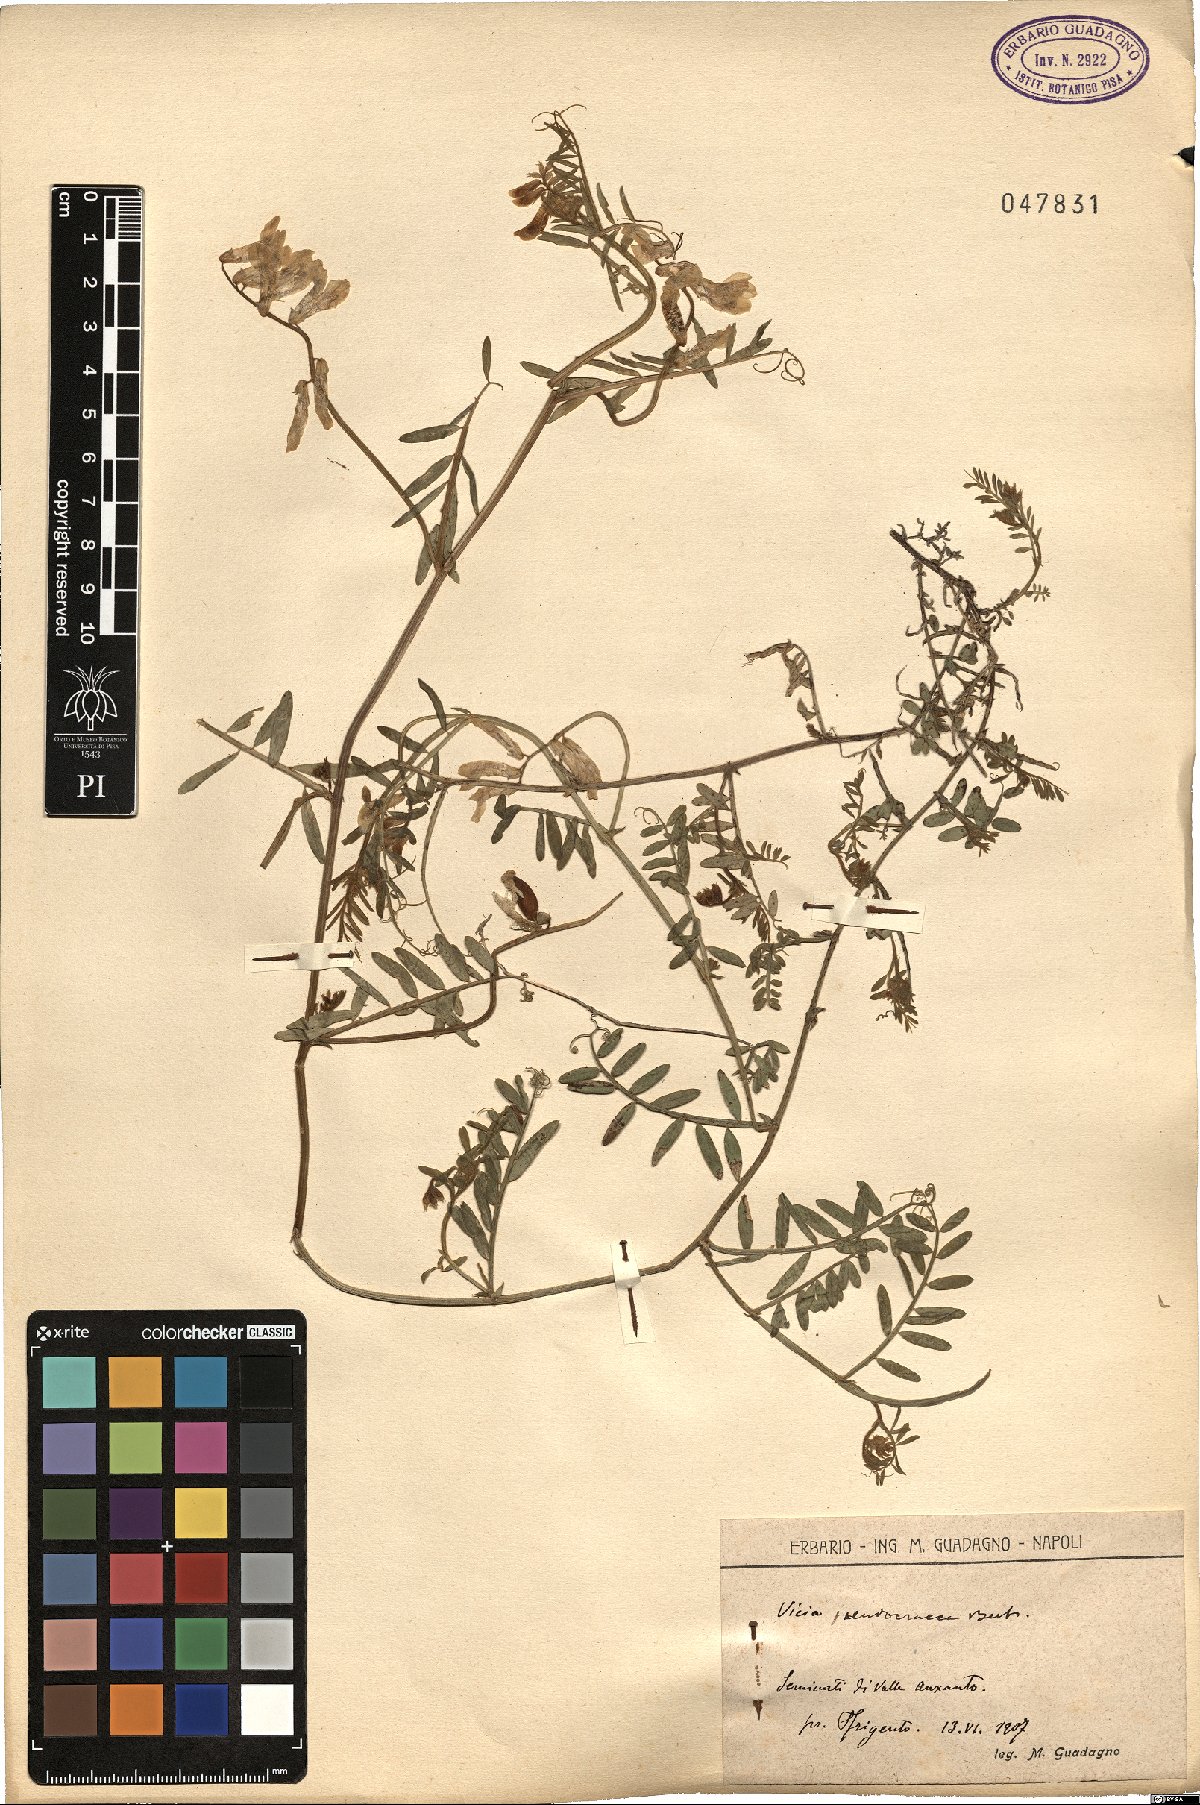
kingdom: Plantae
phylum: Tracheophyta
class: Magnoliopsida
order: Fabales
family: Fabaceae
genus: Vicia
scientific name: Vicia villosa
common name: Fodder vetch
